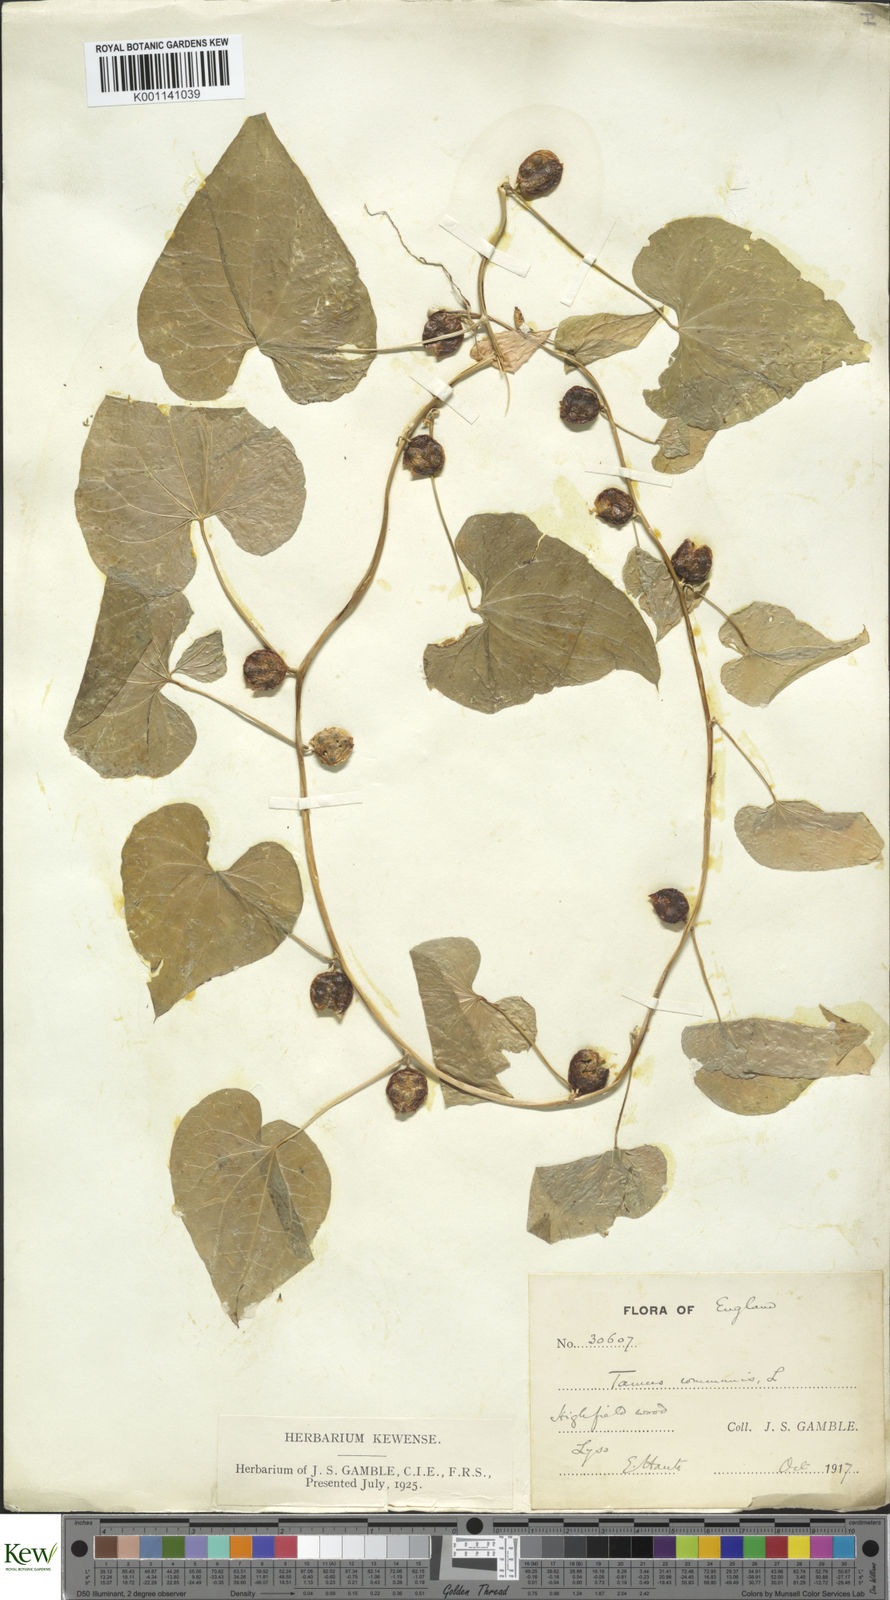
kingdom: Plantae
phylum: Tracheophyta
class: Liliopsida
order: Dioscoreales
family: Dioscoreaceae
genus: Dioscorea
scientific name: Dioscorea communis
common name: Black-bindweed
